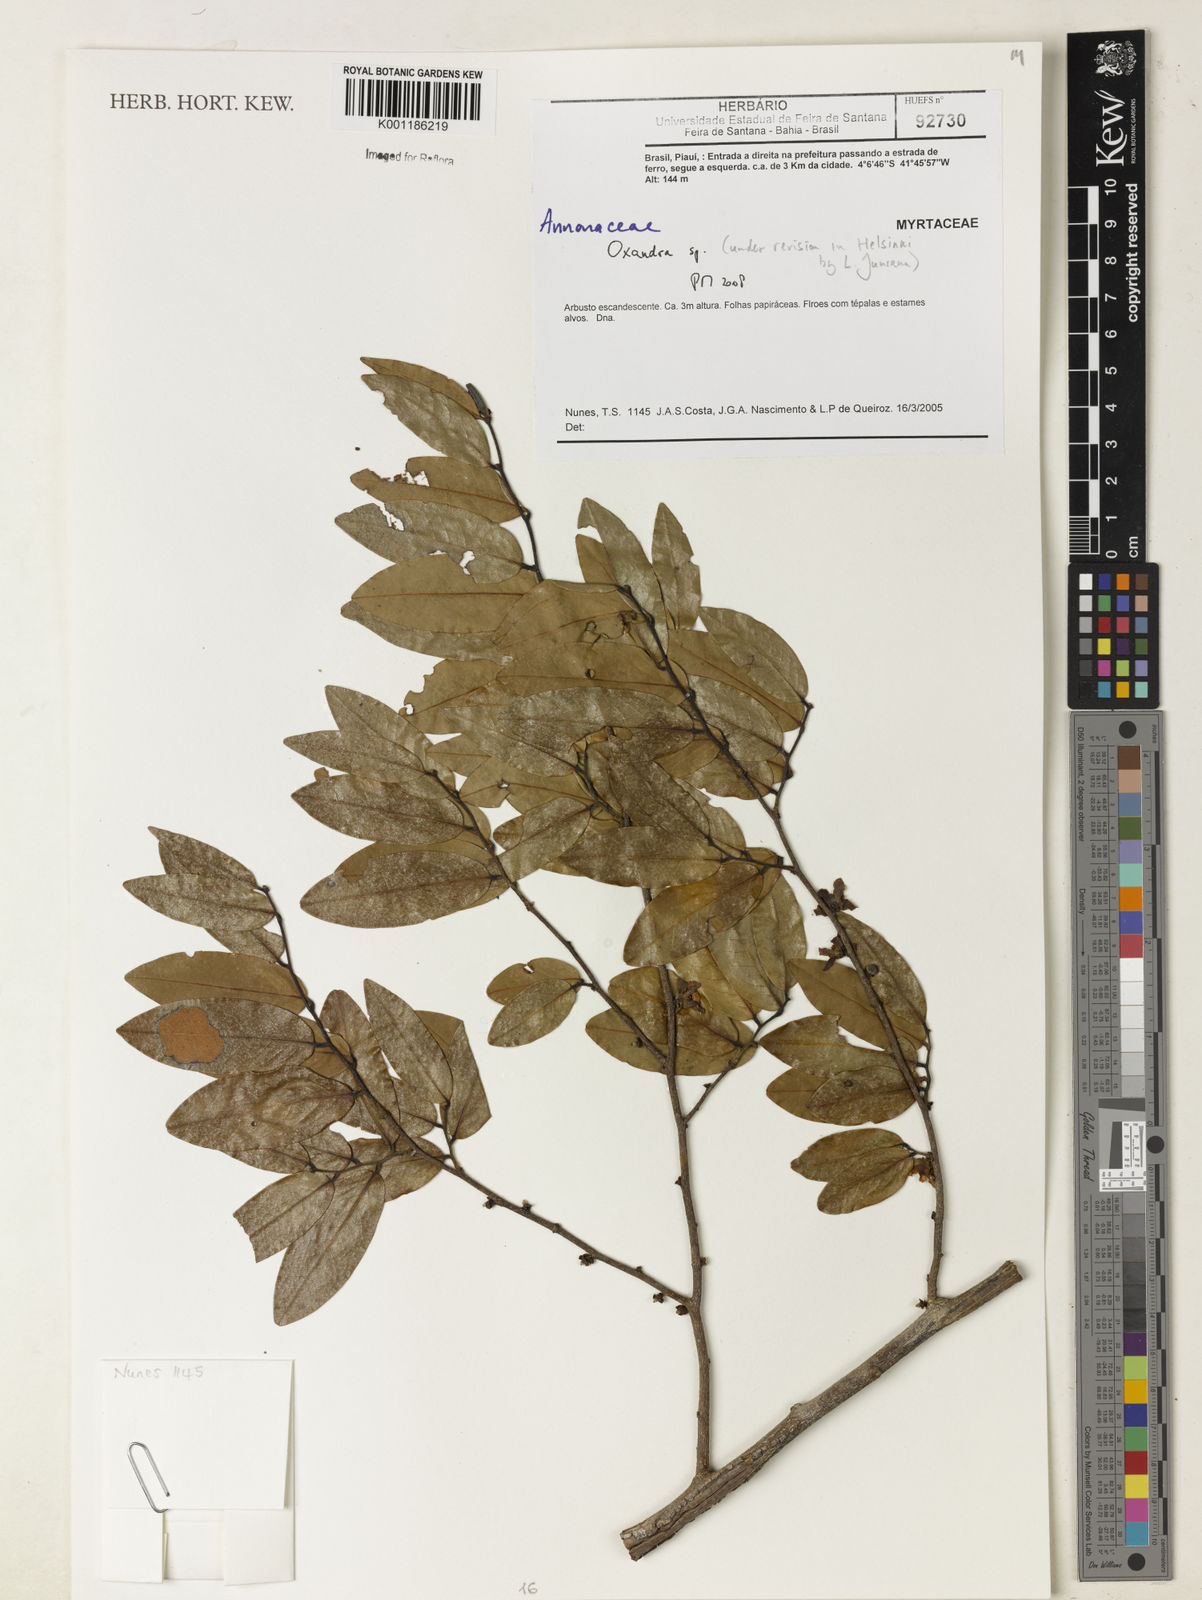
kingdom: Plantae
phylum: Tracheophyta
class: Magnoliopsida
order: Magnoliales
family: Annonaceae
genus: Oxandra
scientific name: Oxandra
